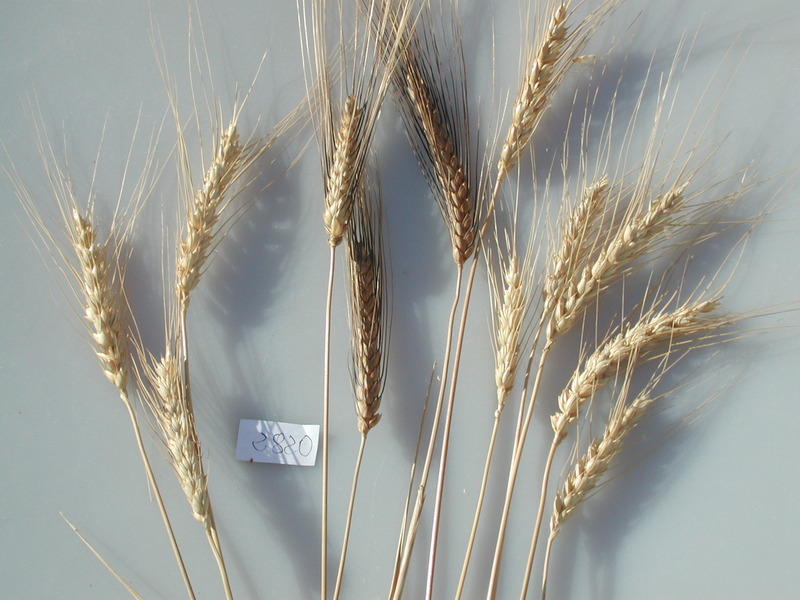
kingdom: Plantae
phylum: Tracheophyta
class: Liliopsida
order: Poales
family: Poaceae
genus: Triticum
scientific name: Triticum turgidum
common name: Wheat
